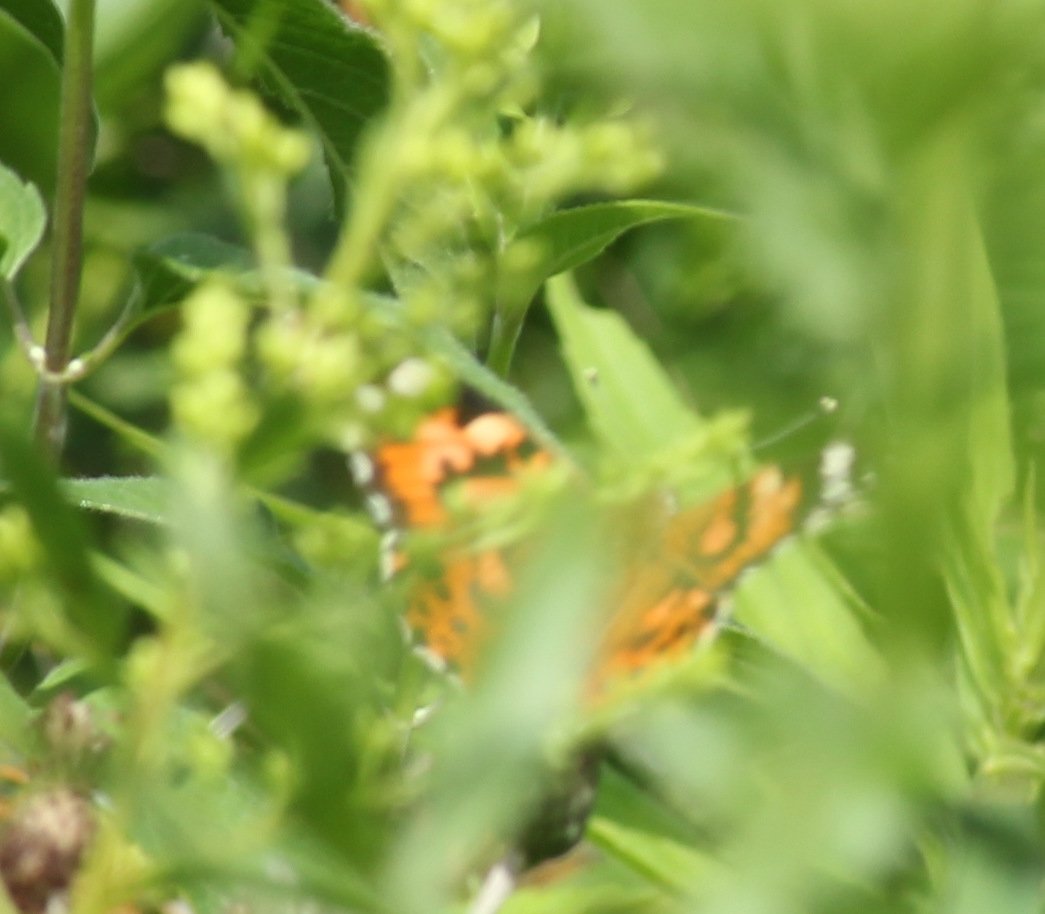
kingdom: Animalia
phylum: Arthropoda
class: Insecta
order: Lepidoptera
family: Nymphalidae
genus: Vanessa
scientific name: Vanessa cardui
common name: Painted Lady
